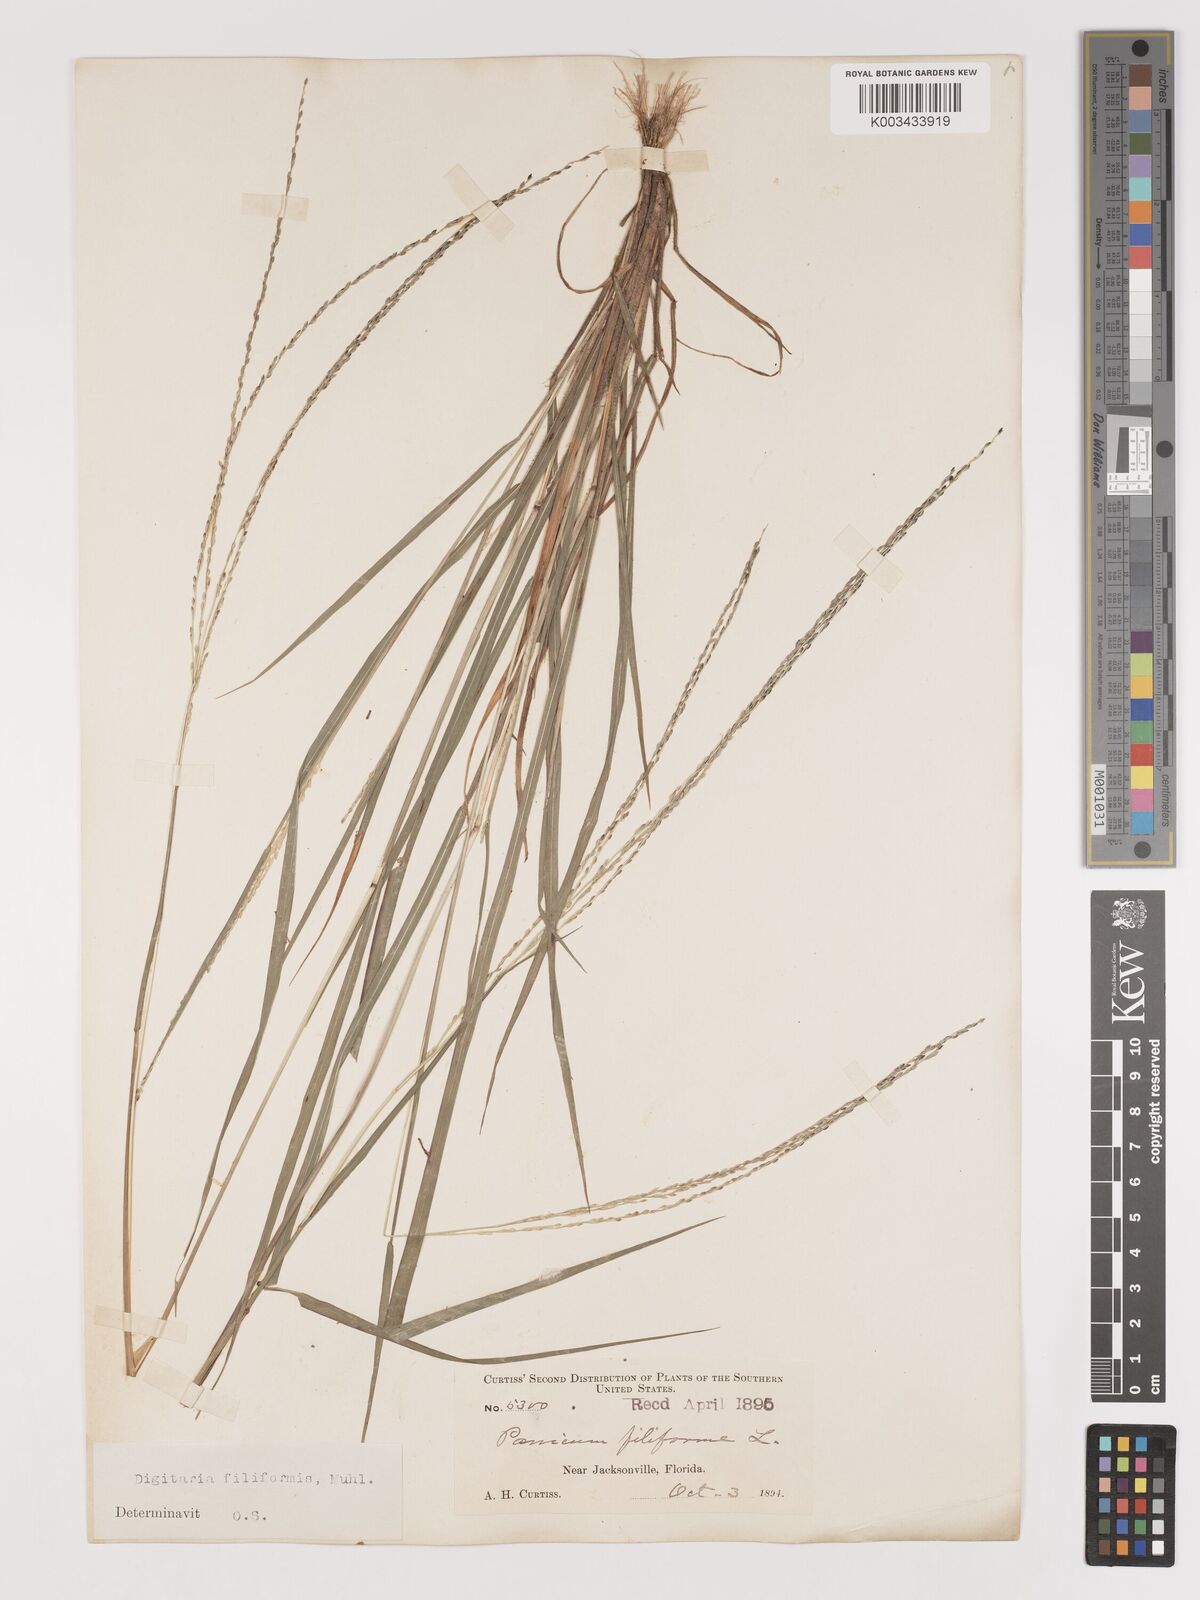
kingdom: Plantae
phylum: Tracheophyta
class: Liliopsida
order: Poales
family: Poaceae
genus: Digitaria
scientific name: Digitaria filiformis
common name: Slender crabgrass
